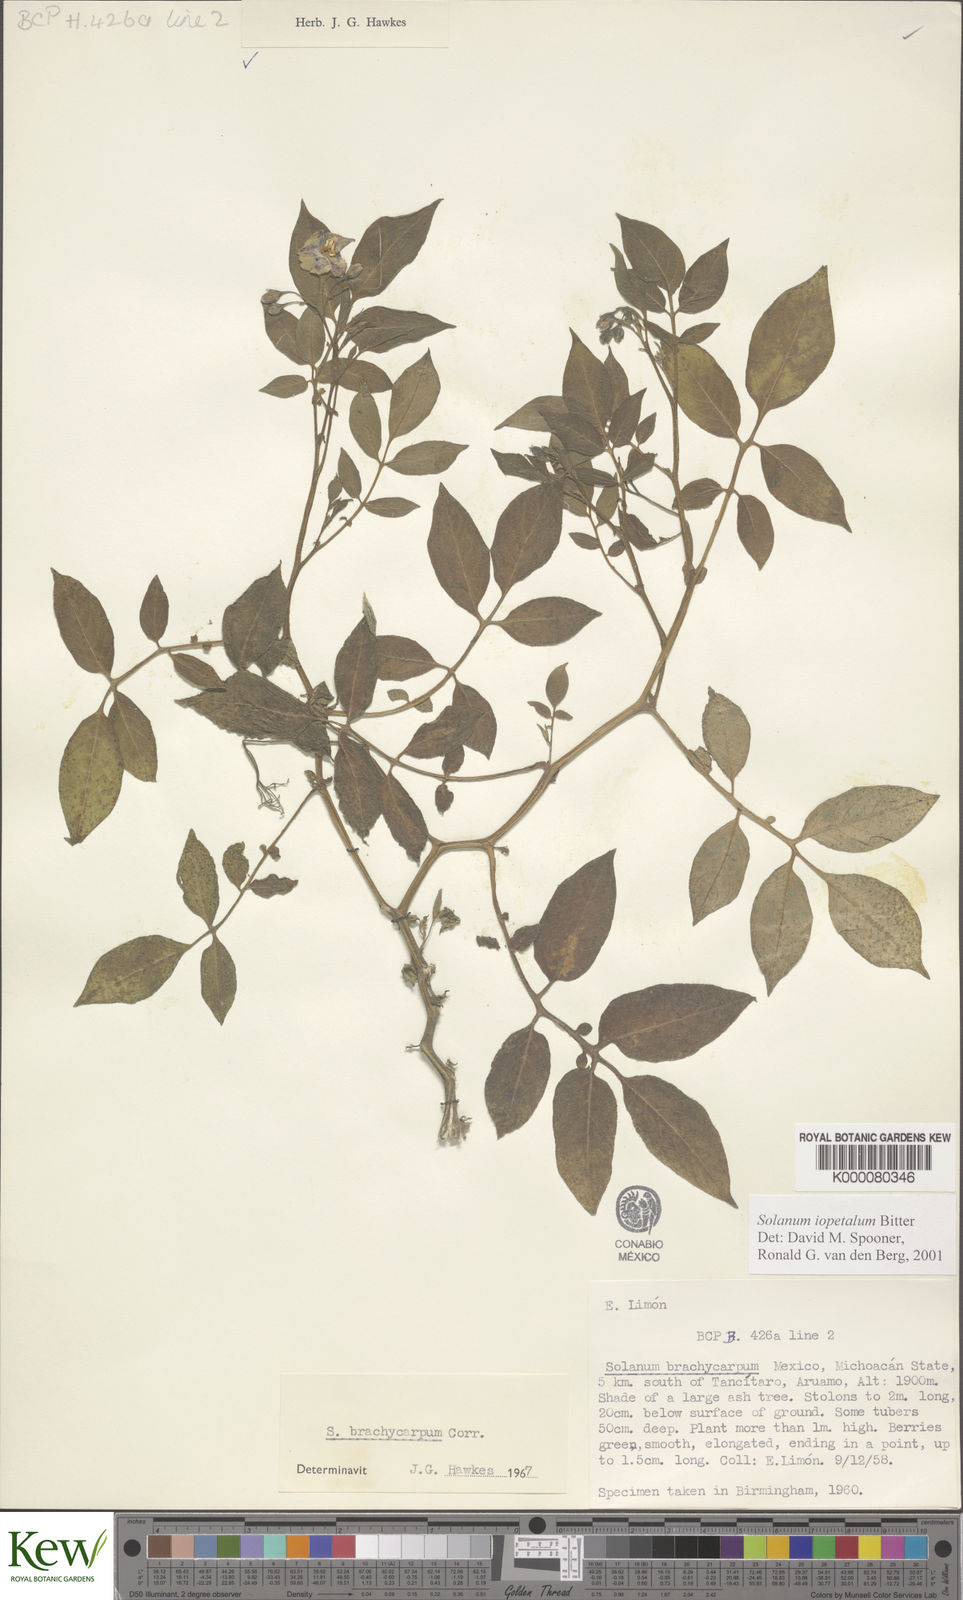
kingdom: Plantae
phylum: Tracheophyta
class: Magnoliopsida
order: Solanales
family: Solanaceae
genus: Solanum
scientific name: Solanum iopetalum
